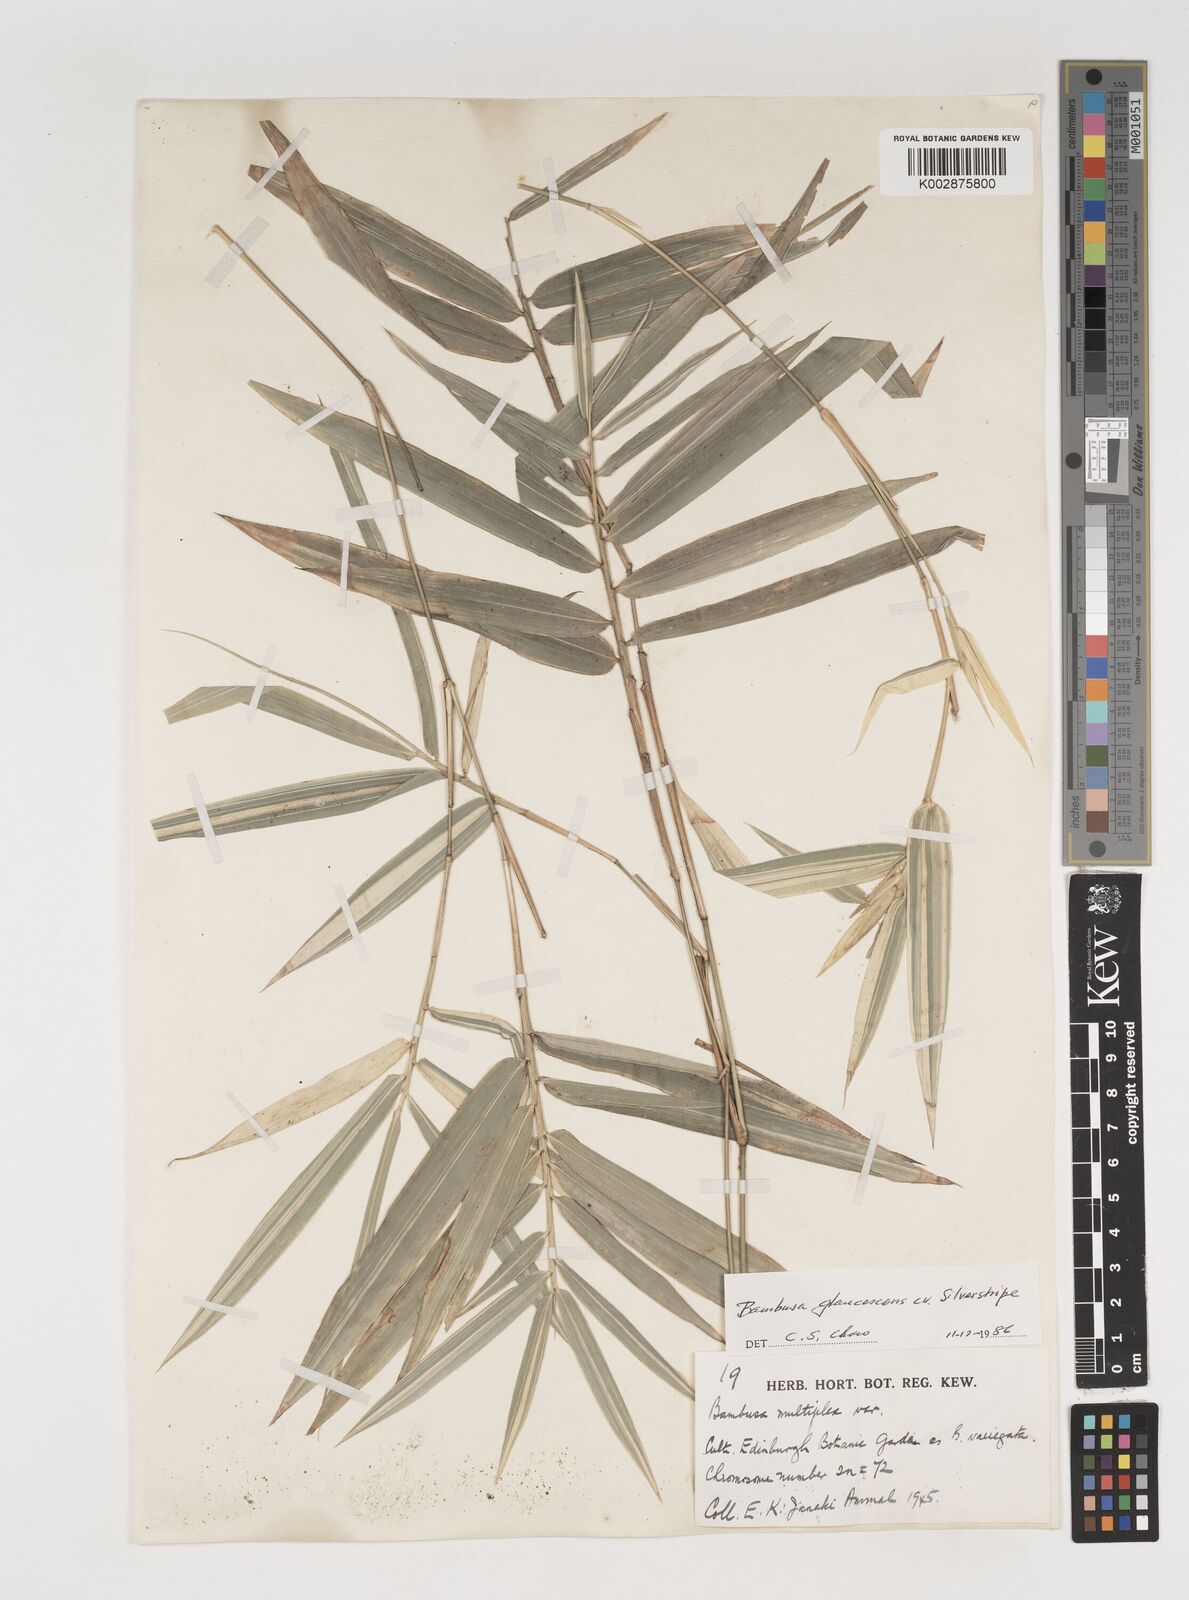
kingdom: Plantae
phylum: Tracheophyta
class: Liliopsida
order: Poales
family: Poaceae
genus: Bambusa
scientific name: Bambusa multiplex
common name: Hedge bamboo
